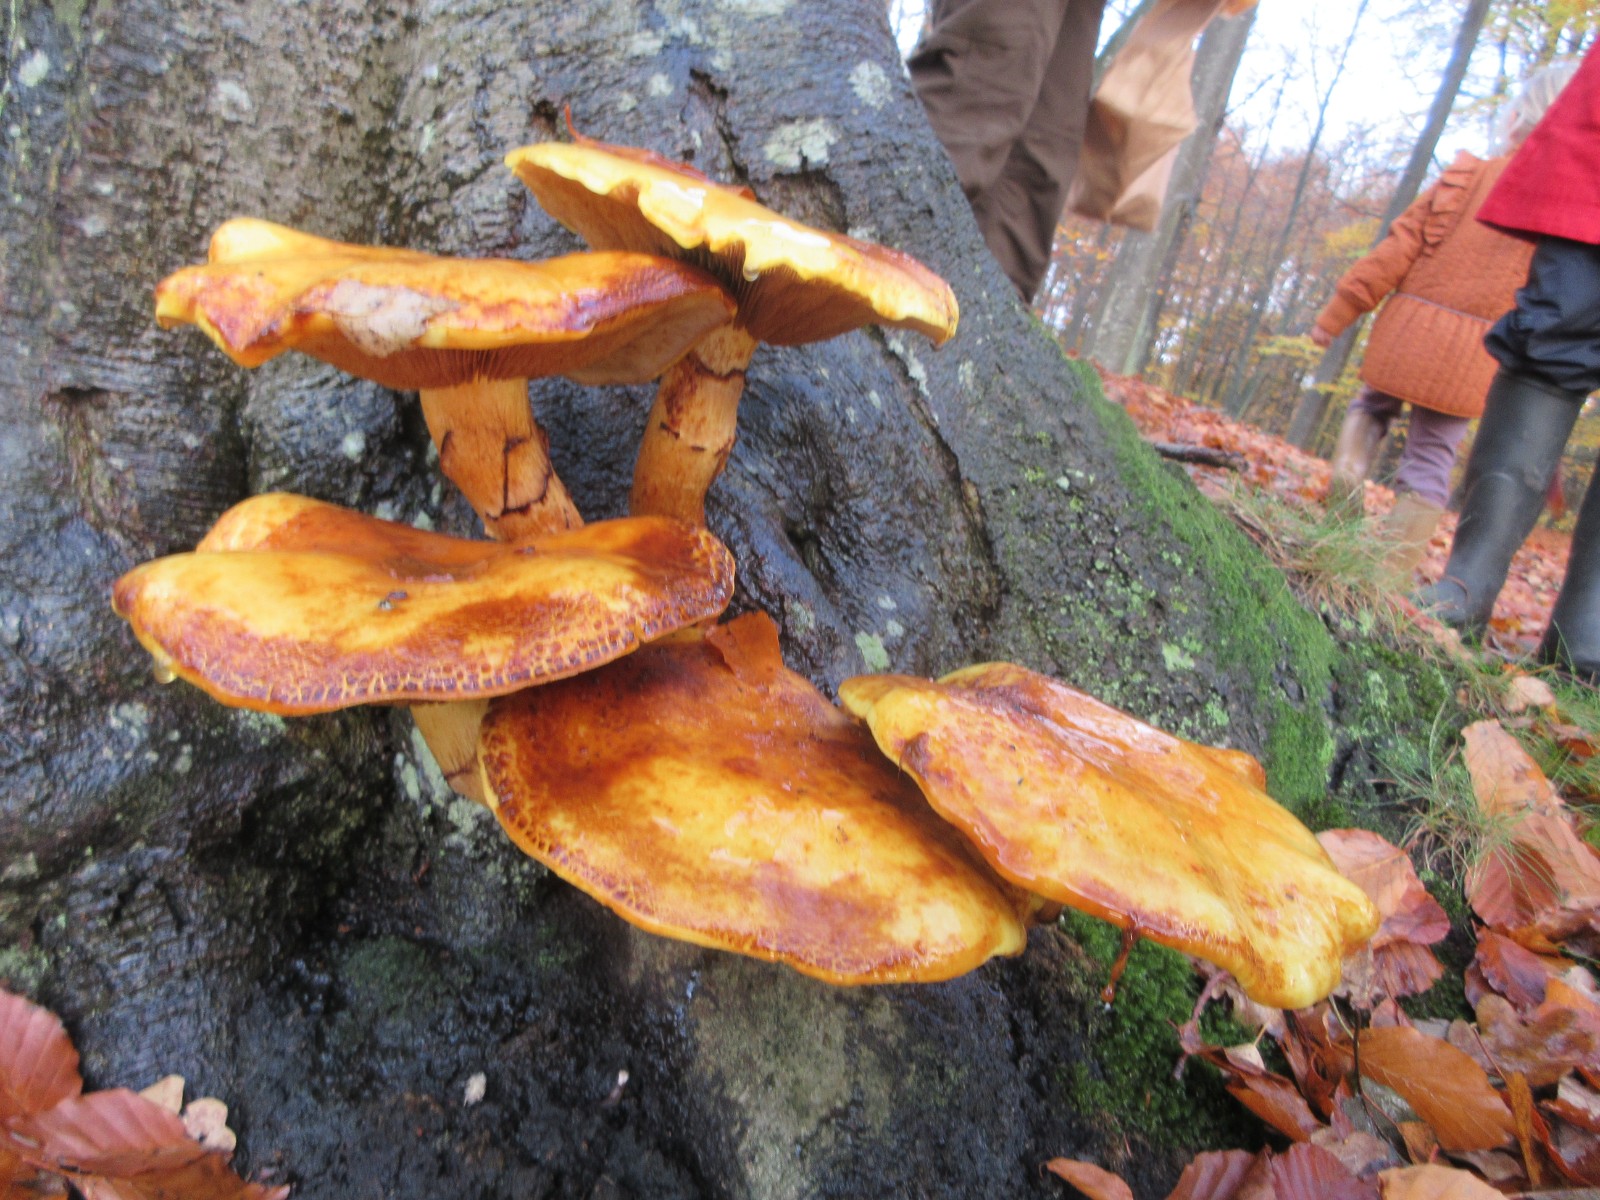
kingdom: Fungi
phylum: Basidiomycota
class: Agaricomycetes
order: Agaricales
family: Strophariaceae
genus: Pholiota
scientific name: Pholiota adiposa
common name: højtsiddende skælhat
